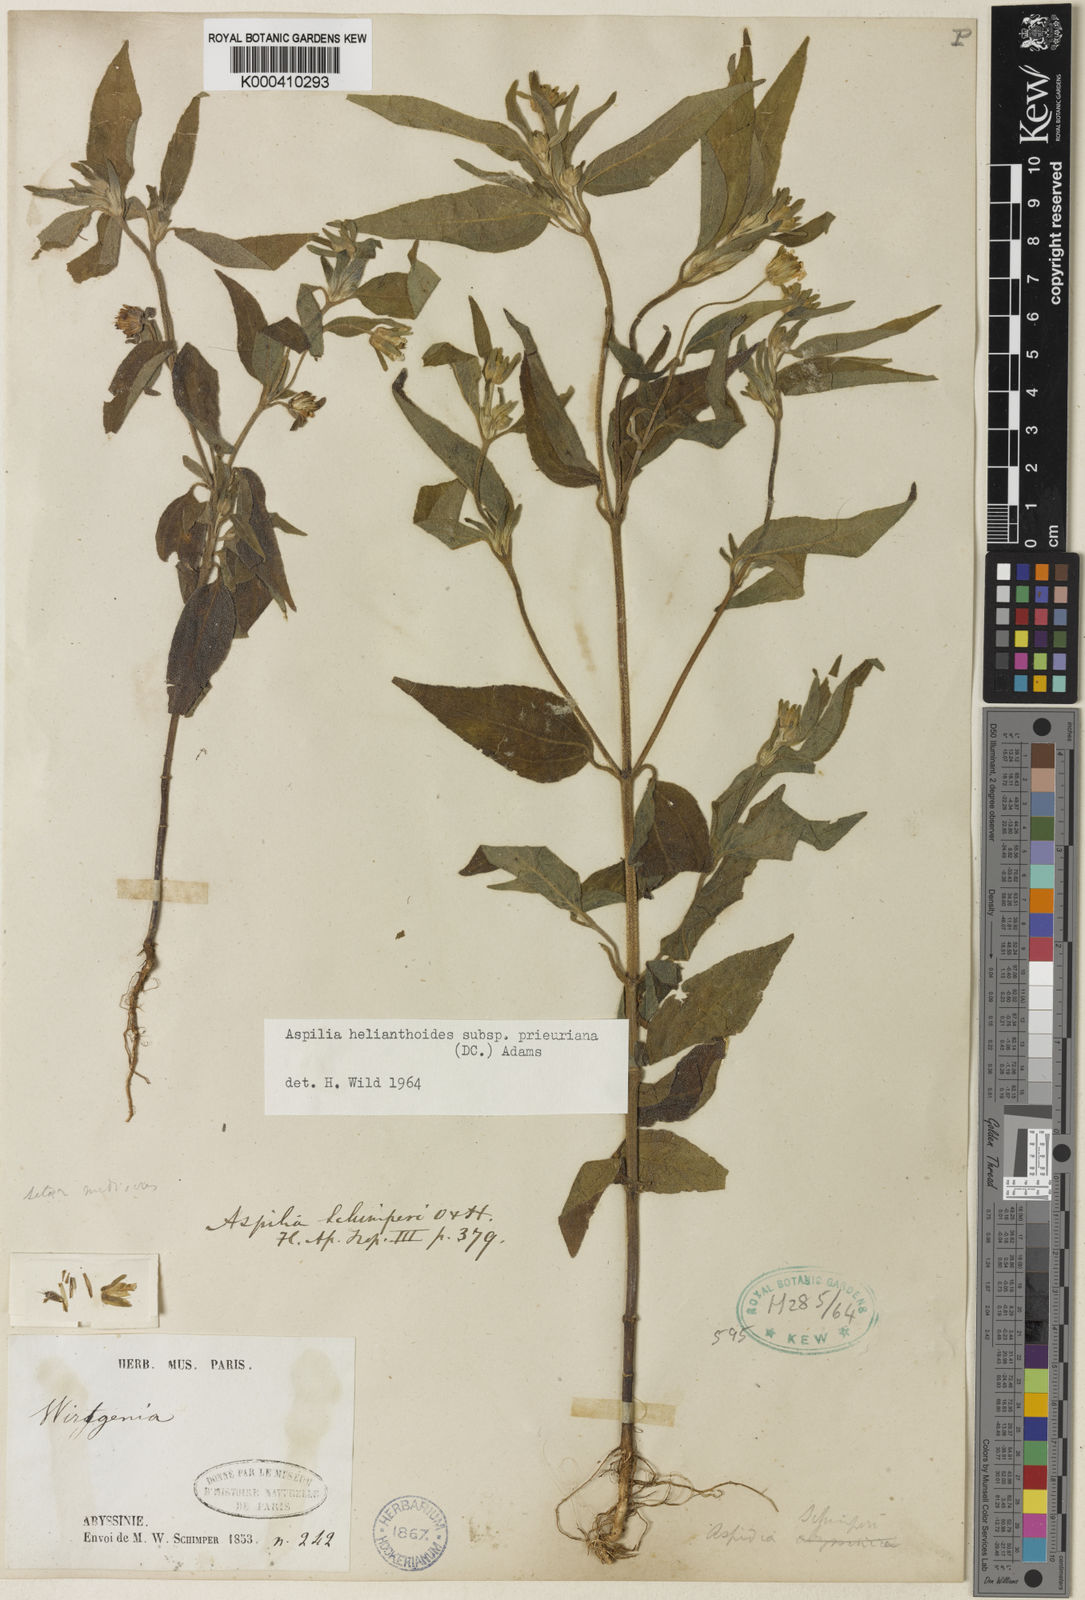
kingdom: Plantae
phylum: Tracheophyta
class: Magnoliopsida
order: Asterales
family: Asteraceae
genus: Aspilia
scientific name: Aspilia ciliata
